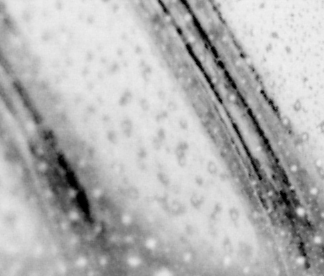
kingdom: Animalia
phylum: Chordata
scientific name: Chordata
